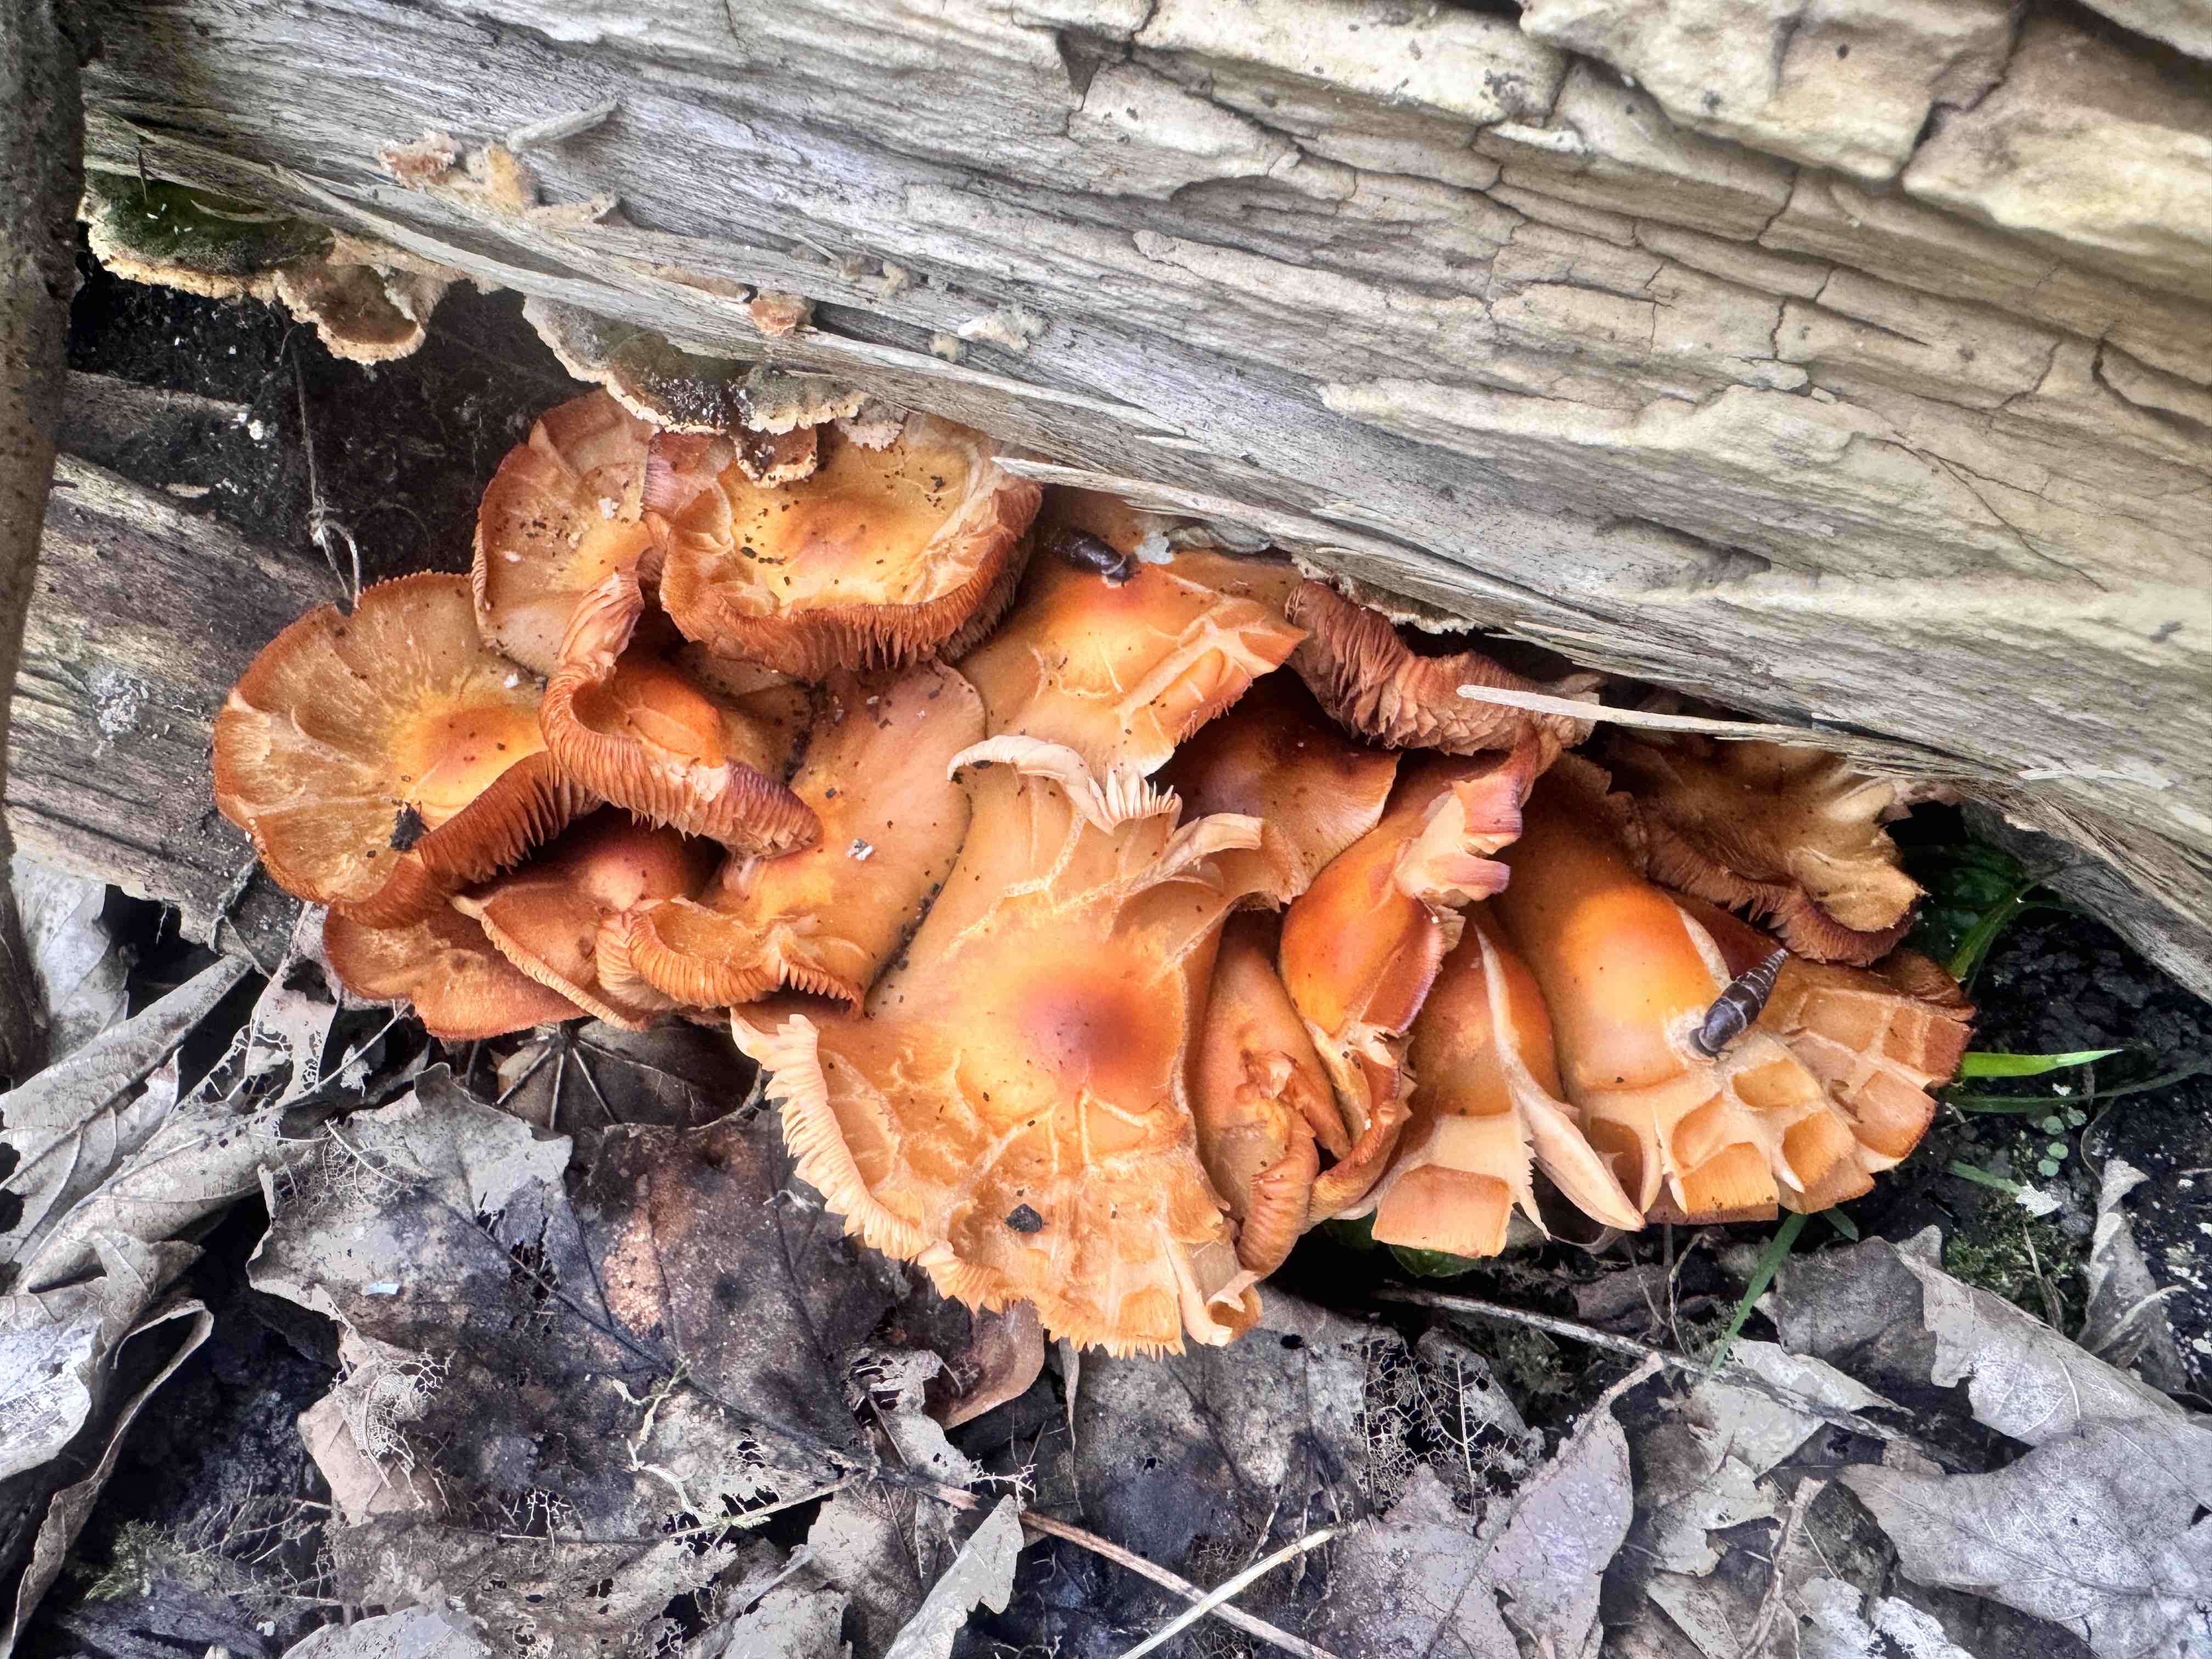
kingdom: Fungi
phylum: Basidiomycota
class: Agaricomycetes
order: Agaricales
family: Strophariaceae
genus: Kuehneromyces
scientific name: Kuehneromyces mutabilis
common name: foranderlig skælhat
